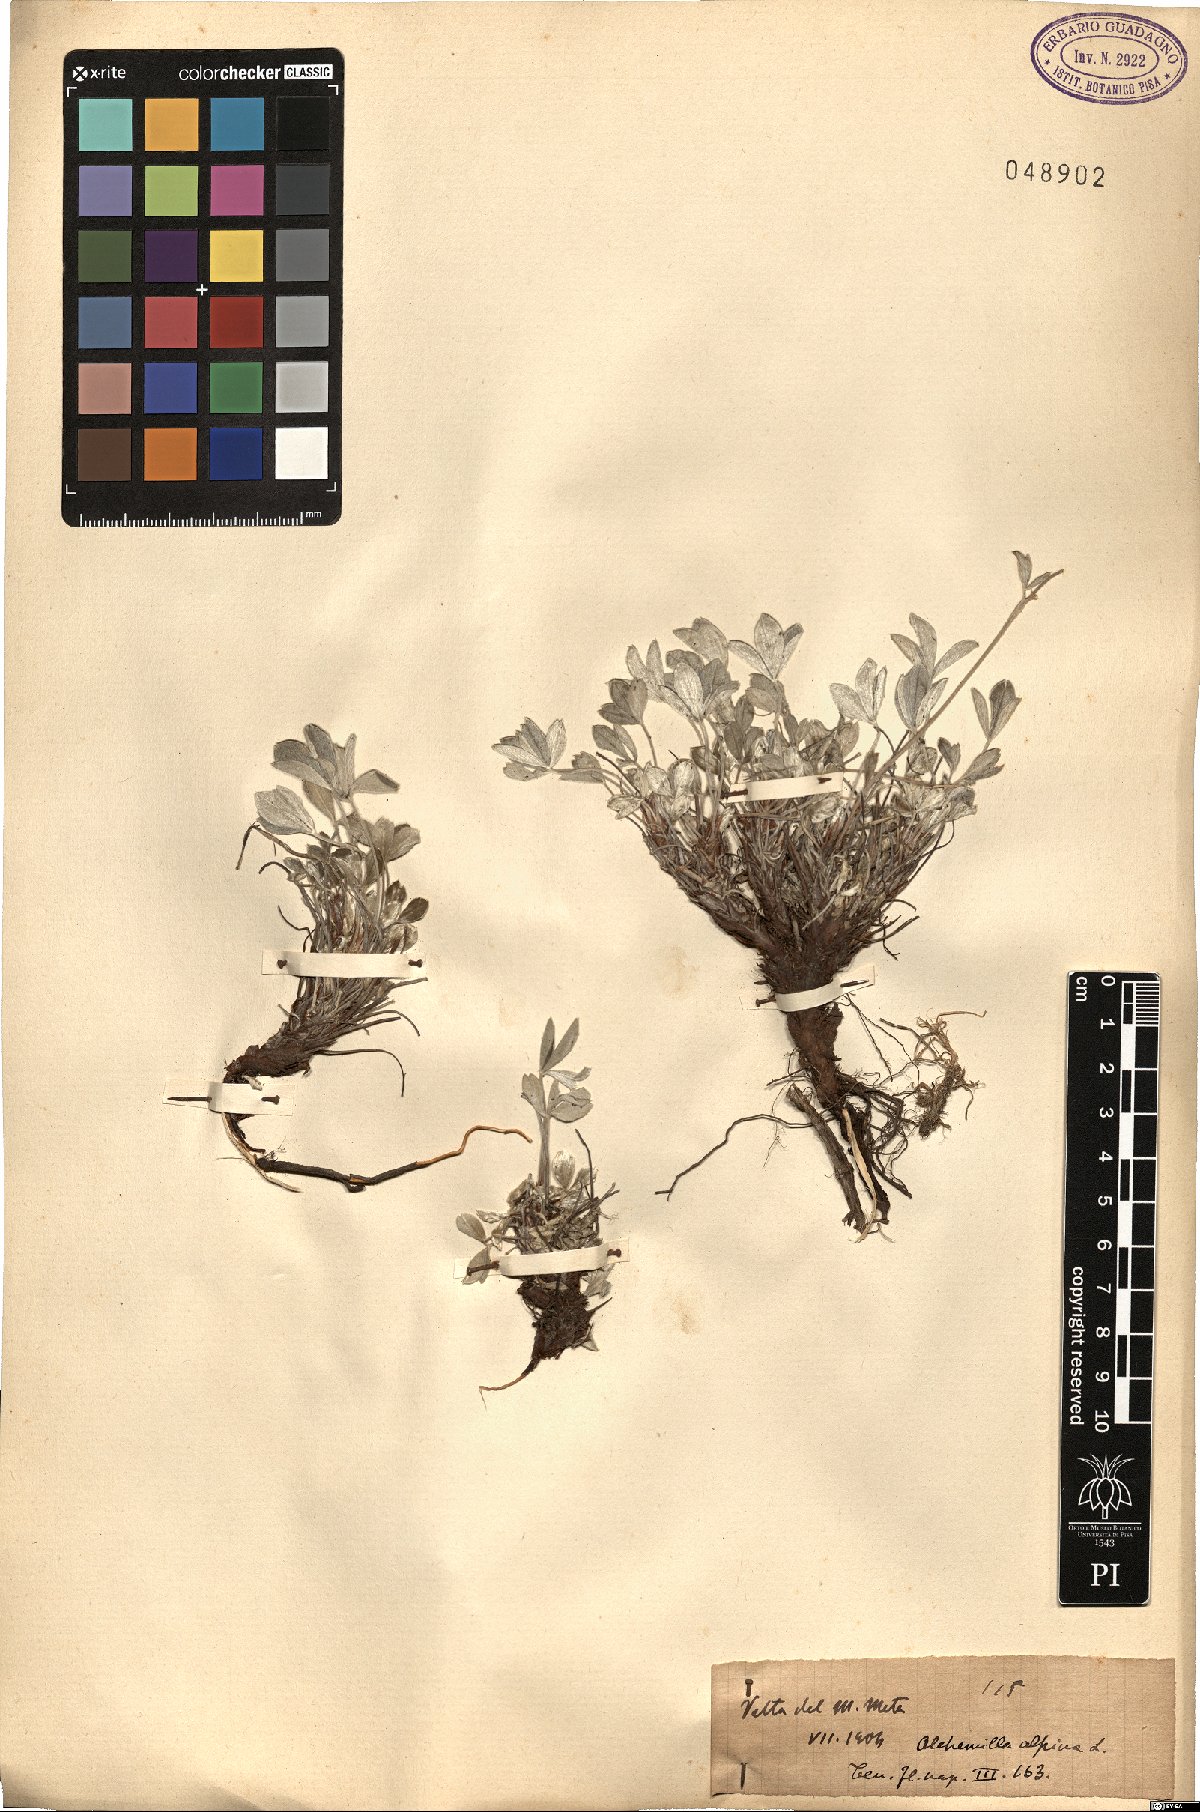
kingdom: Plantae
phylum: Tracheophyta
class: Magnoliopsida
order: Rosales
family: Rosaceae
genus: Alchemilla
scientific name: Alchemilla saxatilis
